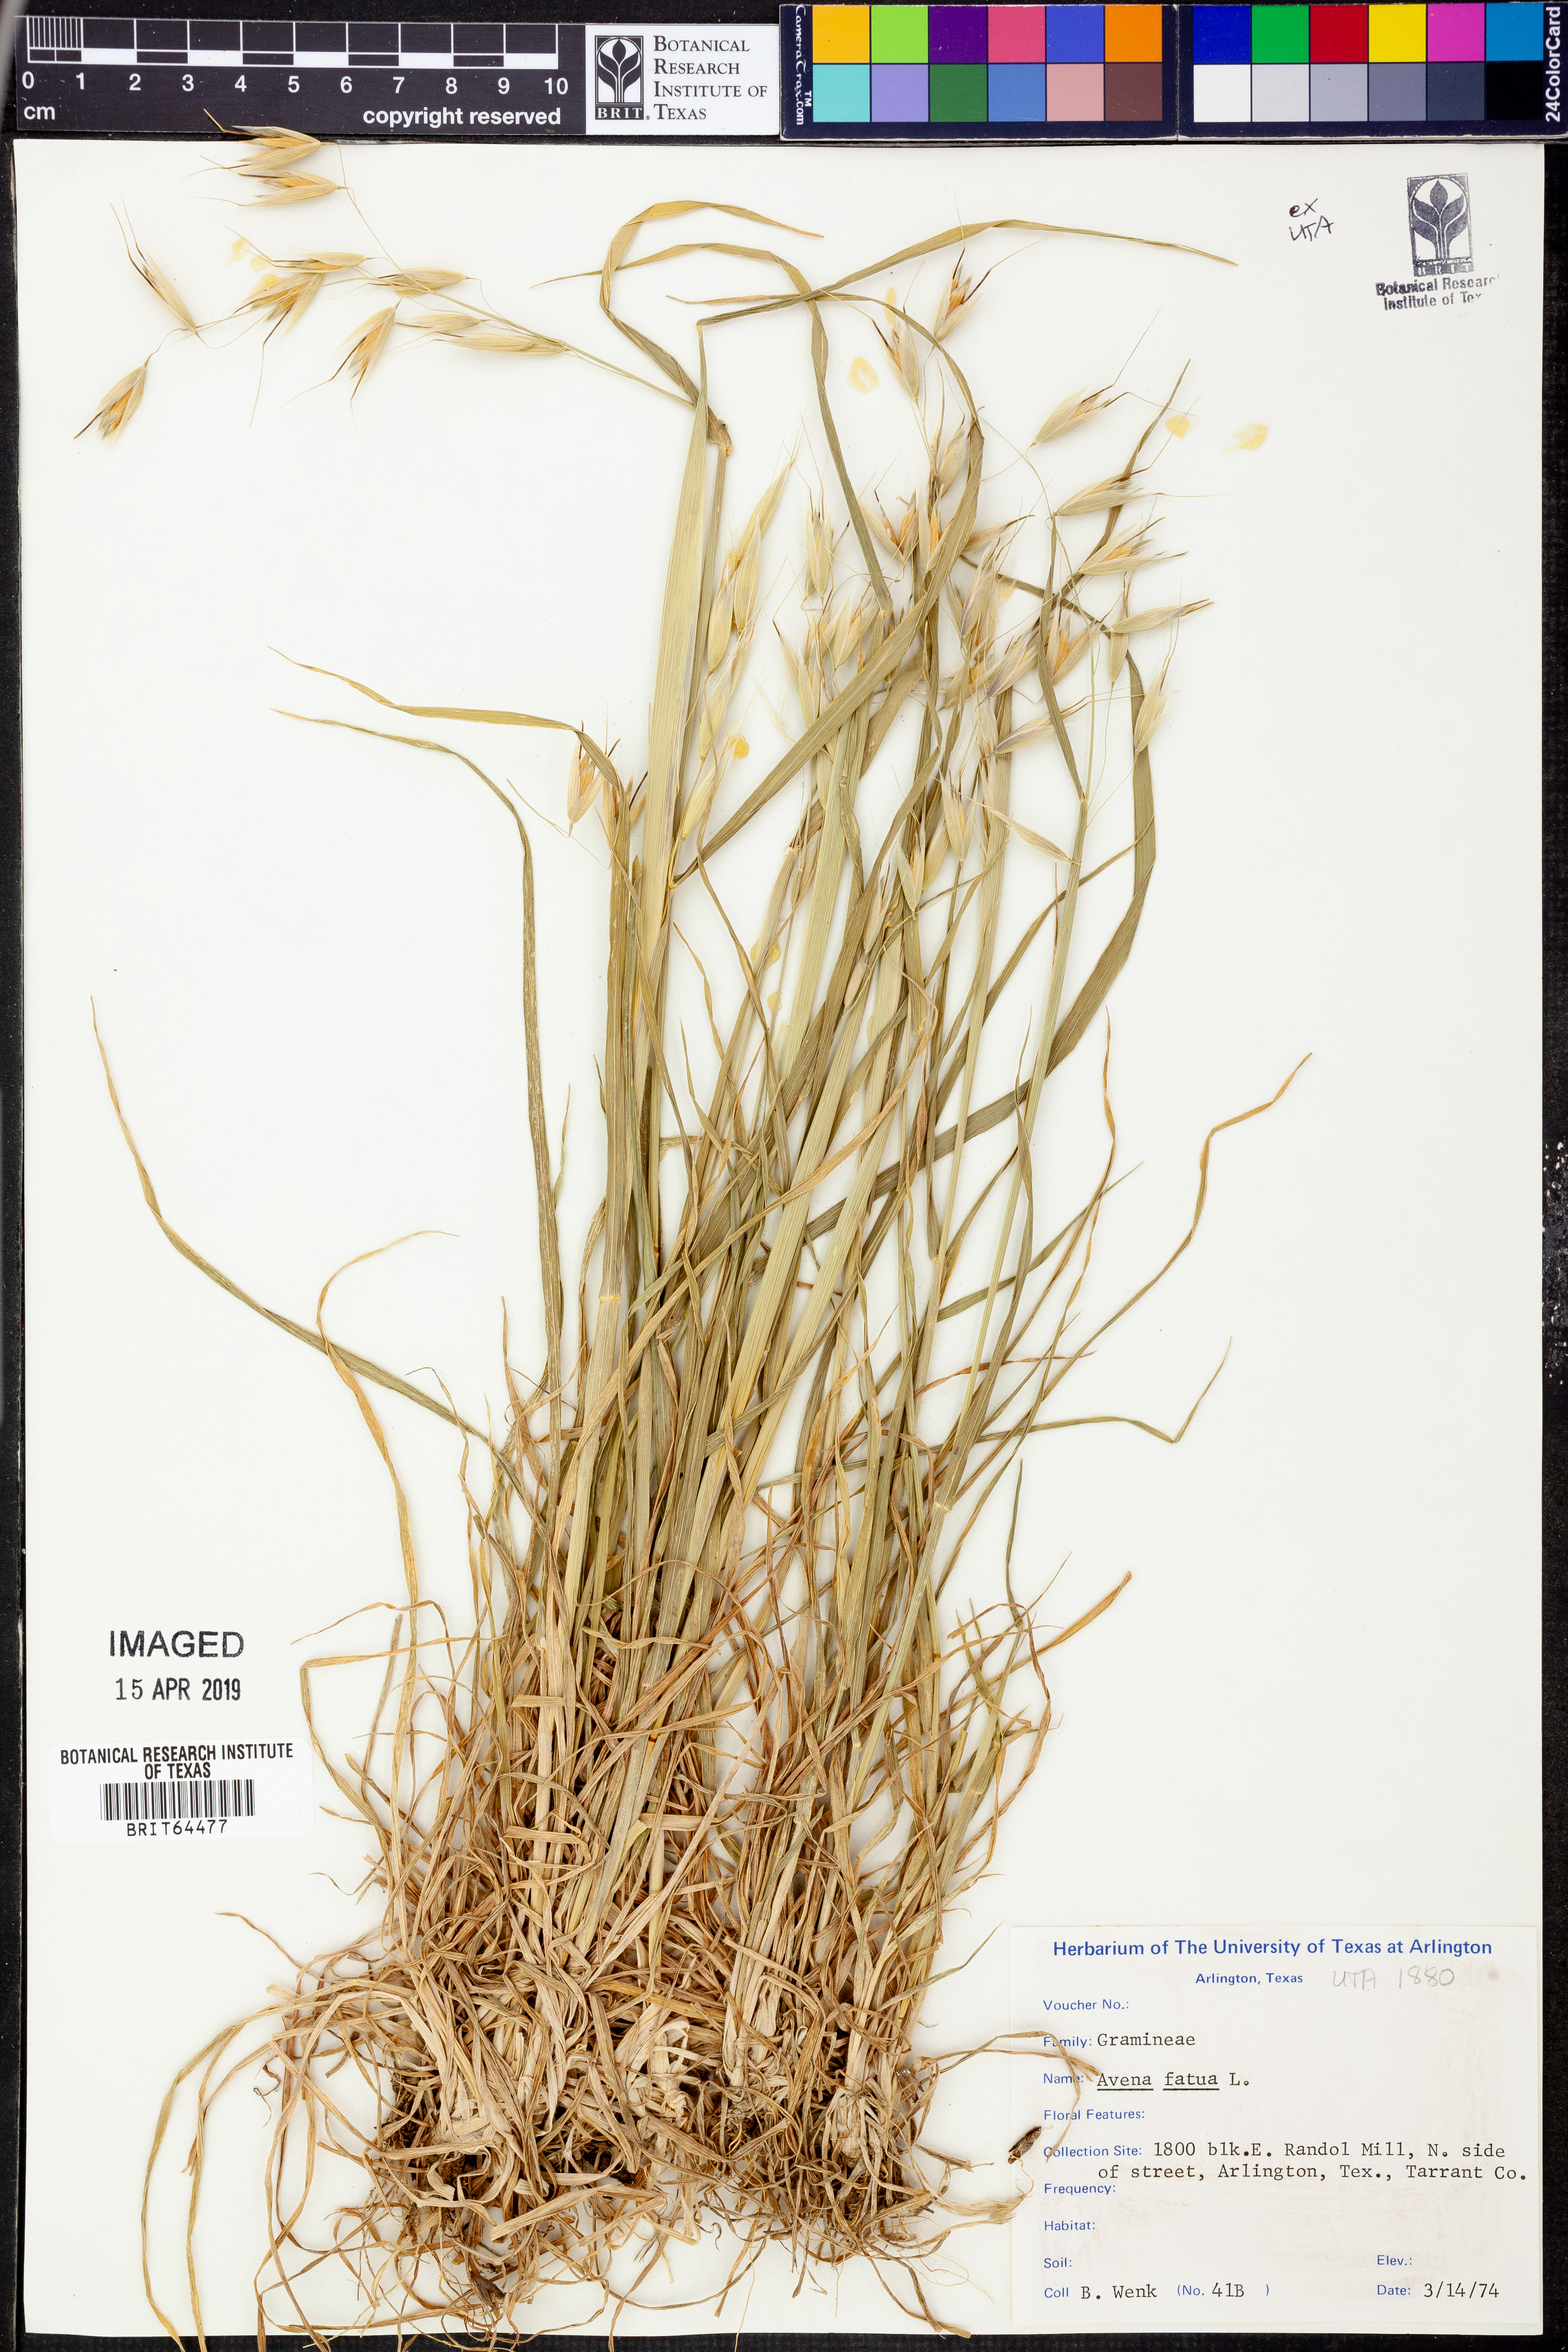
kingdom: Plantae
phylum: Tracheophyta
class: Liliopsida
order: Poales
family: Poaceae
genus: Avena
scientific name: Avena fatua
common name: Wild oat
